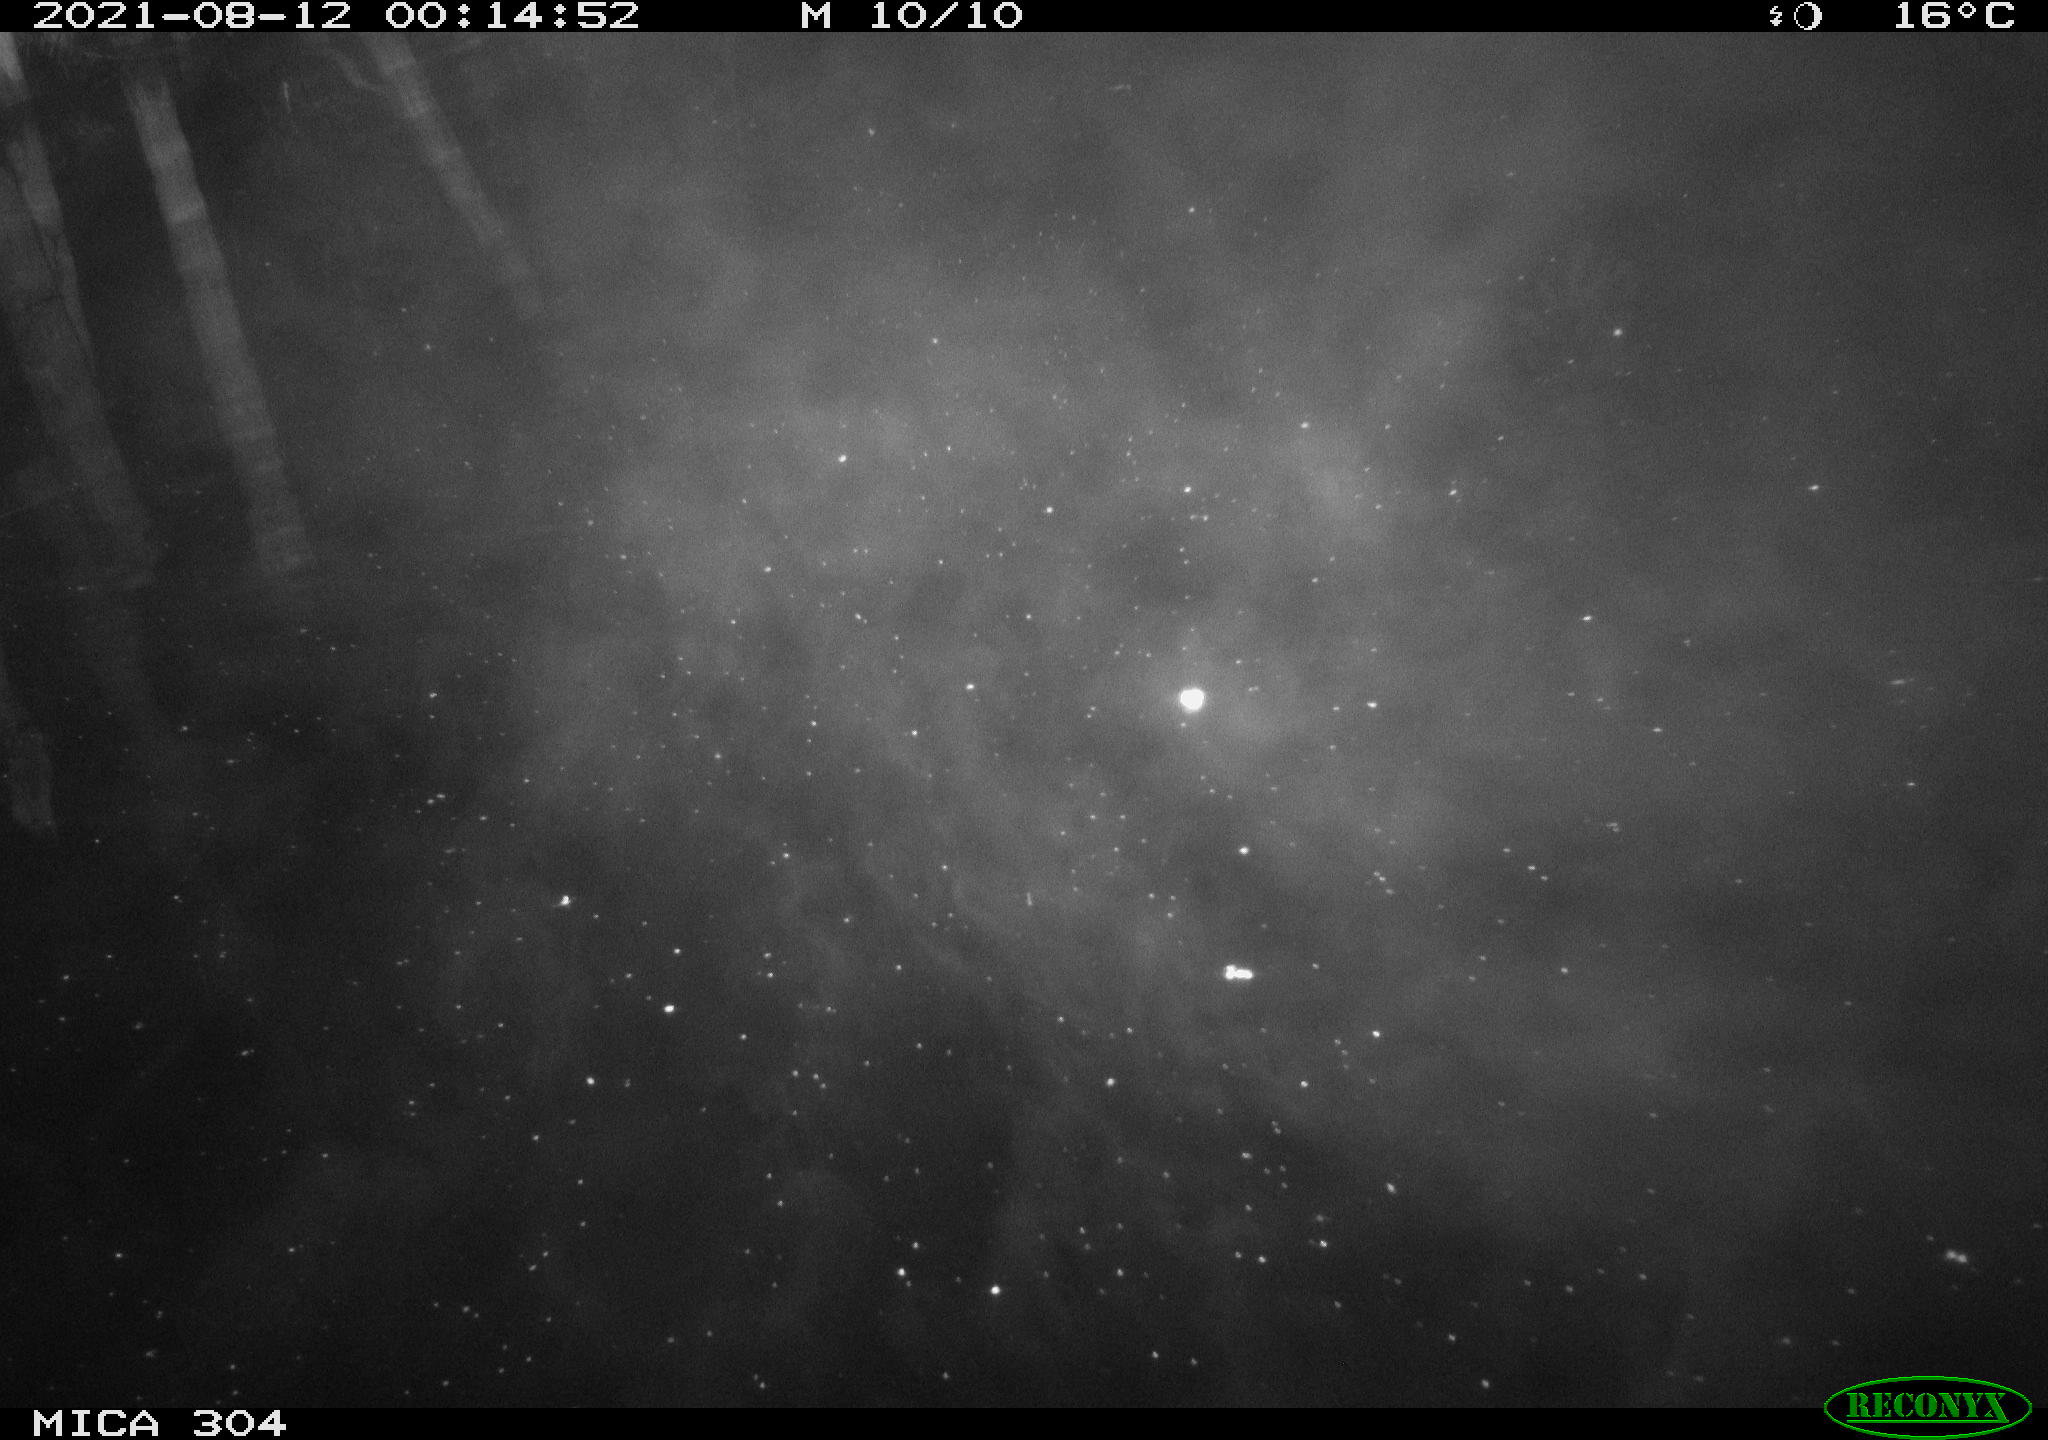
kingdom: Animalia
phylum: Chordata
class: Mammalia
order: Rodentia
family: Muridae
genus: Rattus
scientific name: Rattus norvegicus
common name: Brown rat
